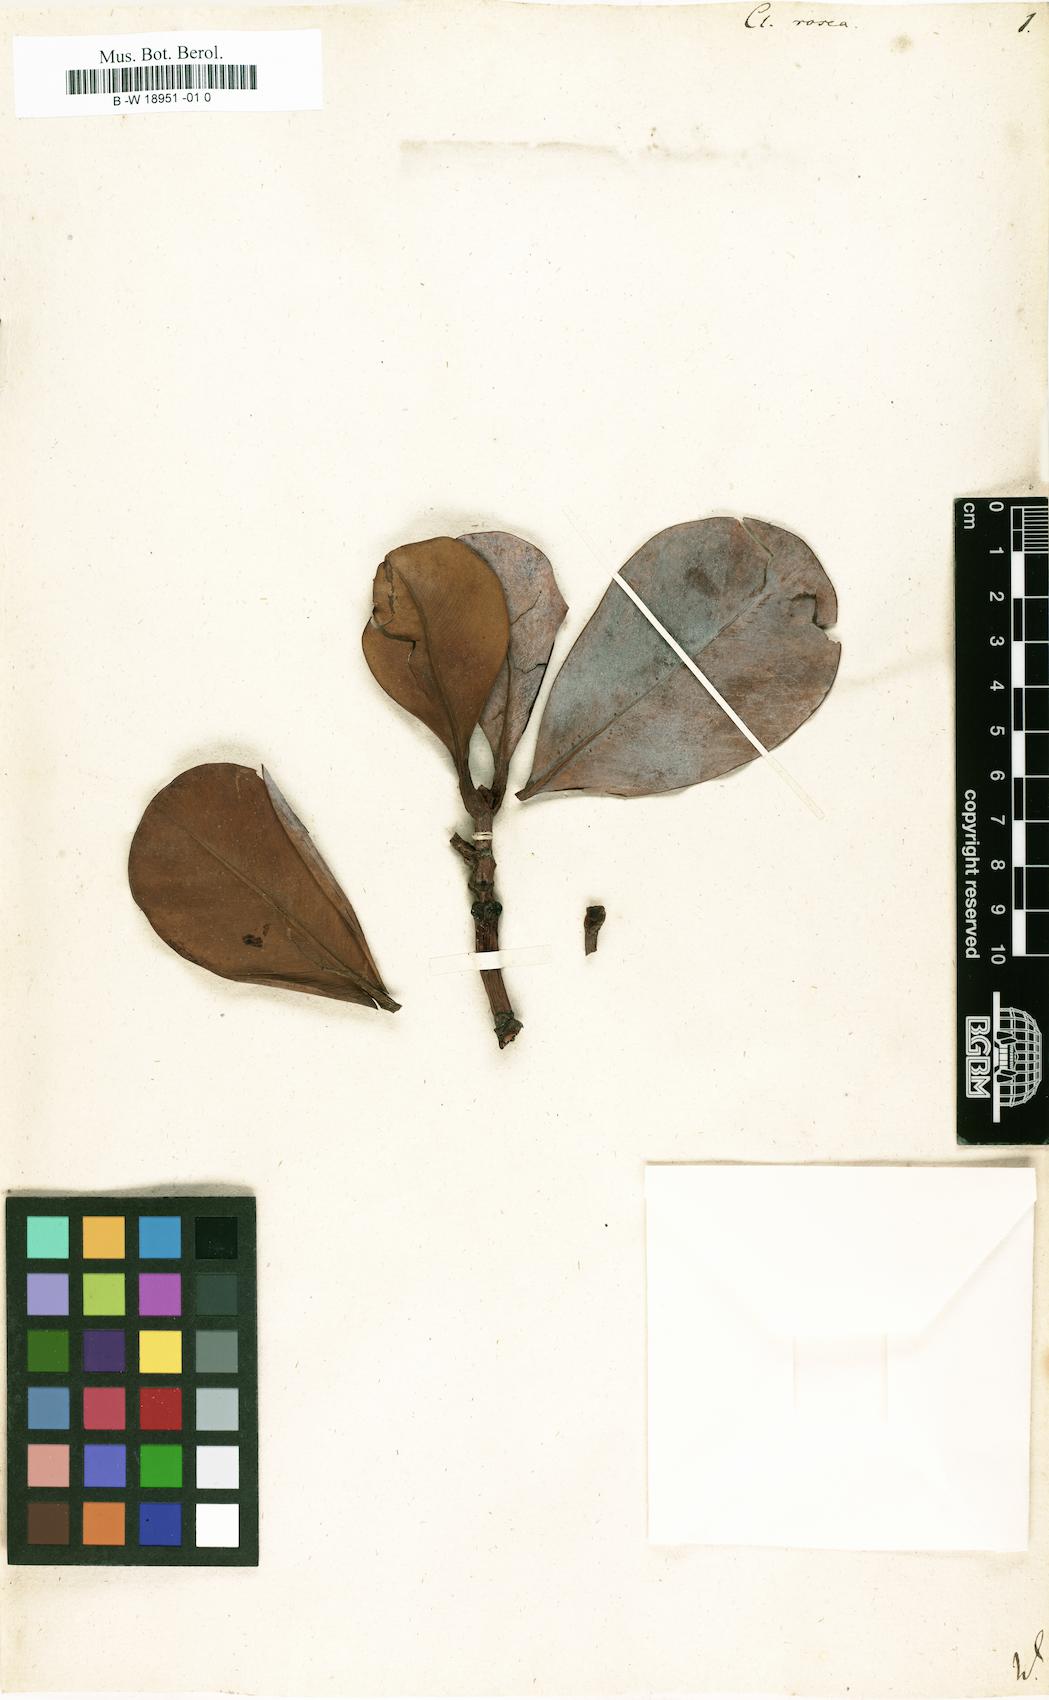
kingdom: Plantae
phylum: Tracheophyta
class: Magnoliopsida
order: Malpighiales
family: Clusiaceae
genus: Clusia
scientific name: Clusia rosea
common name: Scotch attorney
